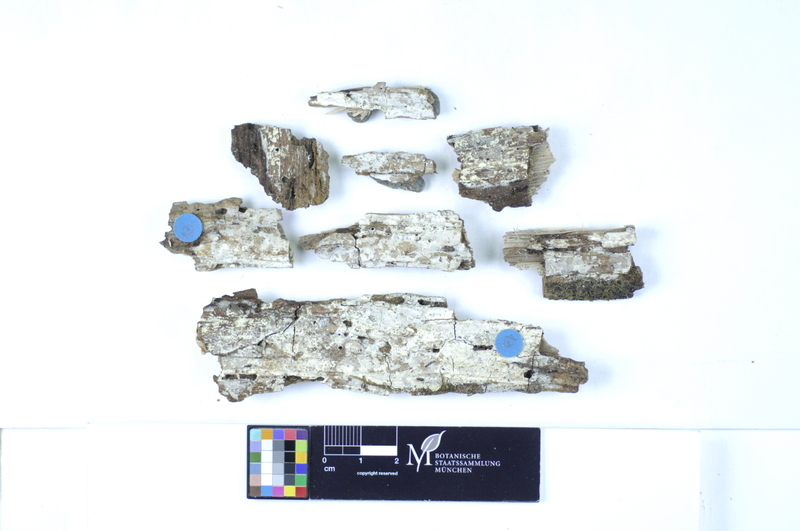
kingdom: Plantae
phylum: Tracheophyta
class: Magnoliopsida
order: Fagales
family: Fagaceae
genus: Quercus
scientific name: Quercus
